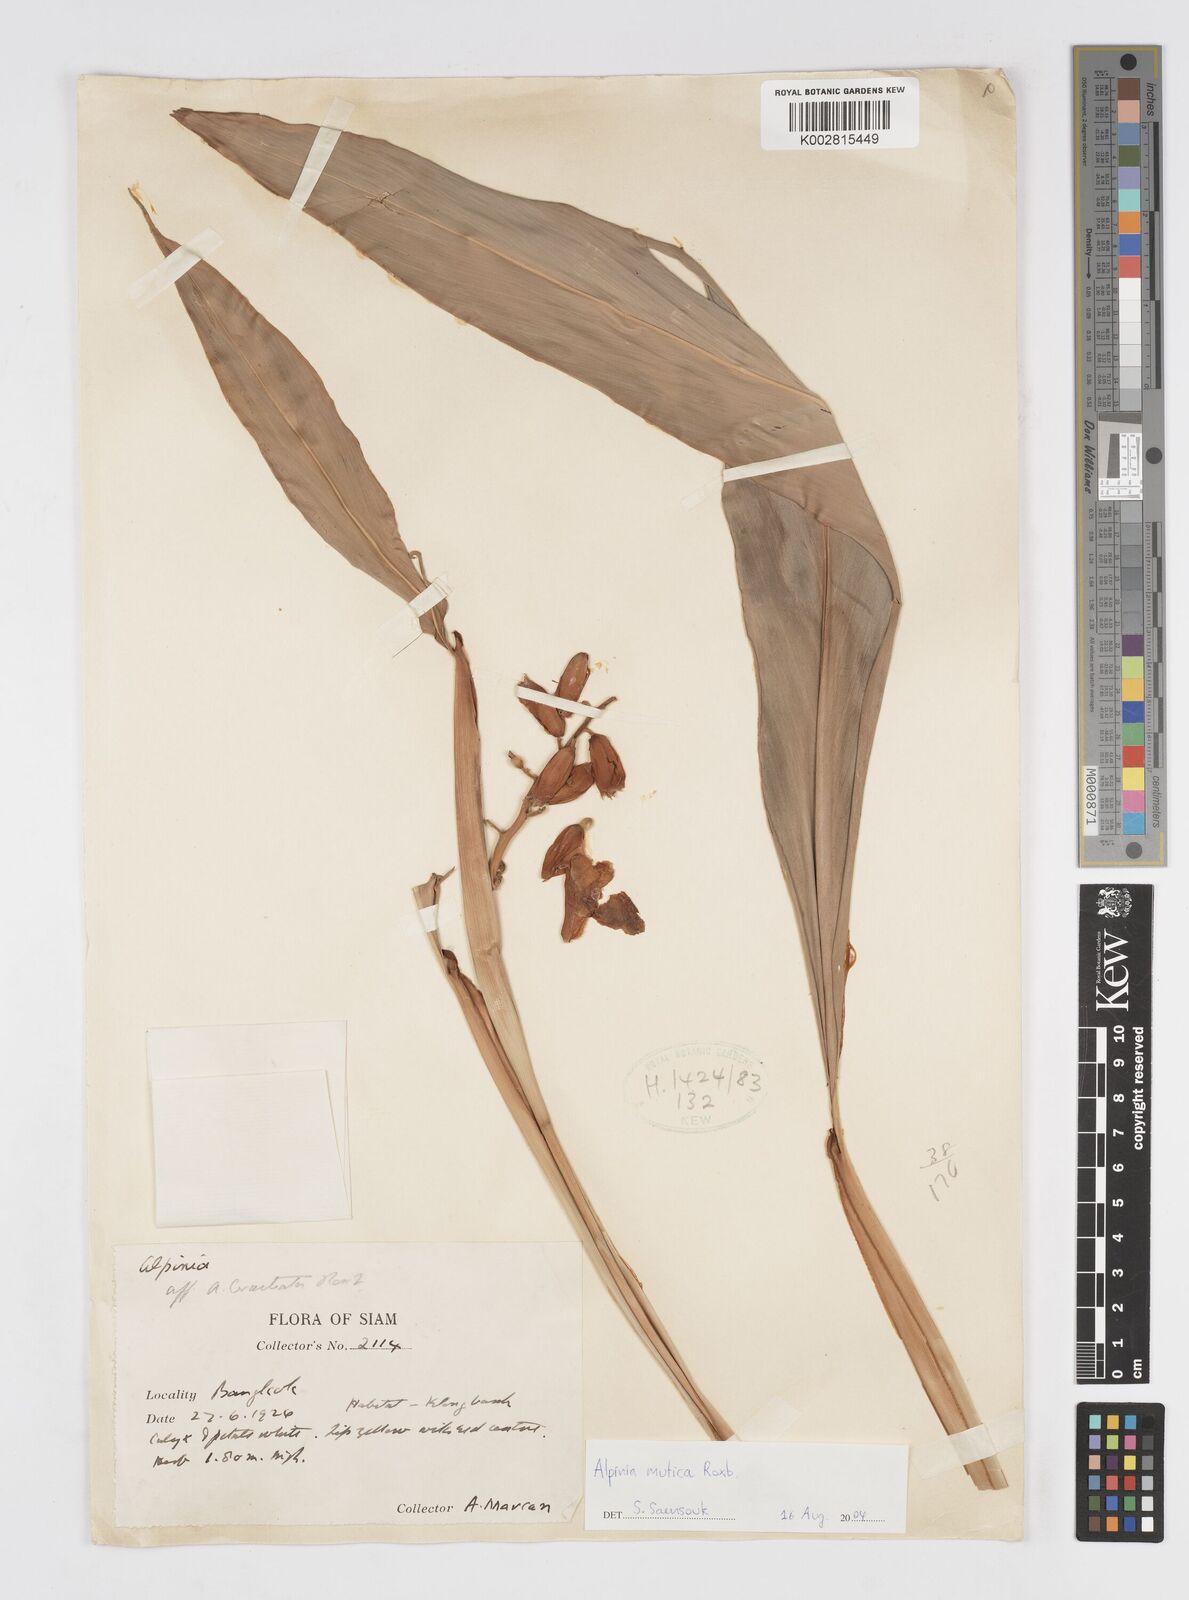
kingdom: Plantae
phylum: Tracheophyta
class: Liliopsida
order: Zingiberales
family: Zingiberaceae
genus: Alpinia
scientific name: Alpinia mutica
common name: Small shell ginger
